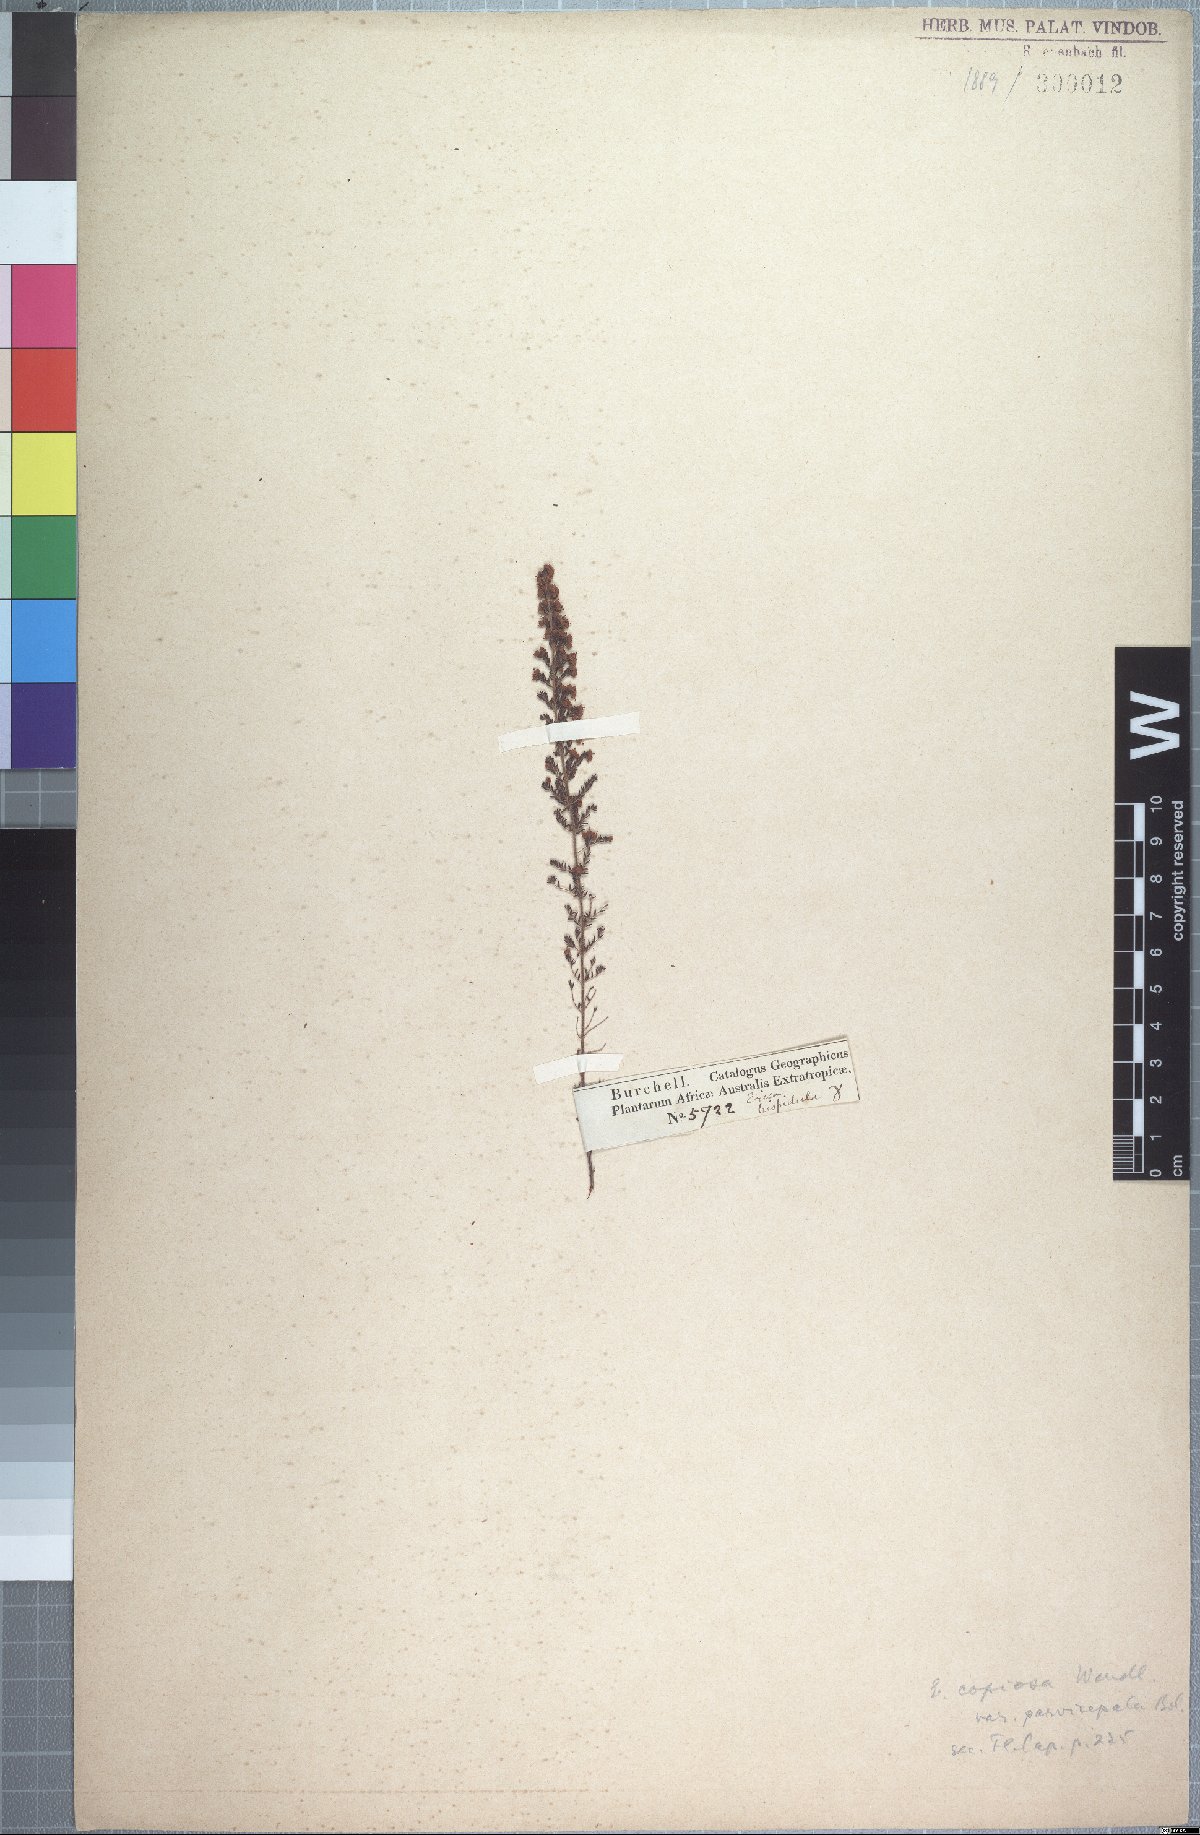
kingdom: Plantae
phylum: Tracheophyta
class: Magnoliopsida
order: Ericales
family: Ericaceae
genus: Erica
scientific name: Erica florifera
